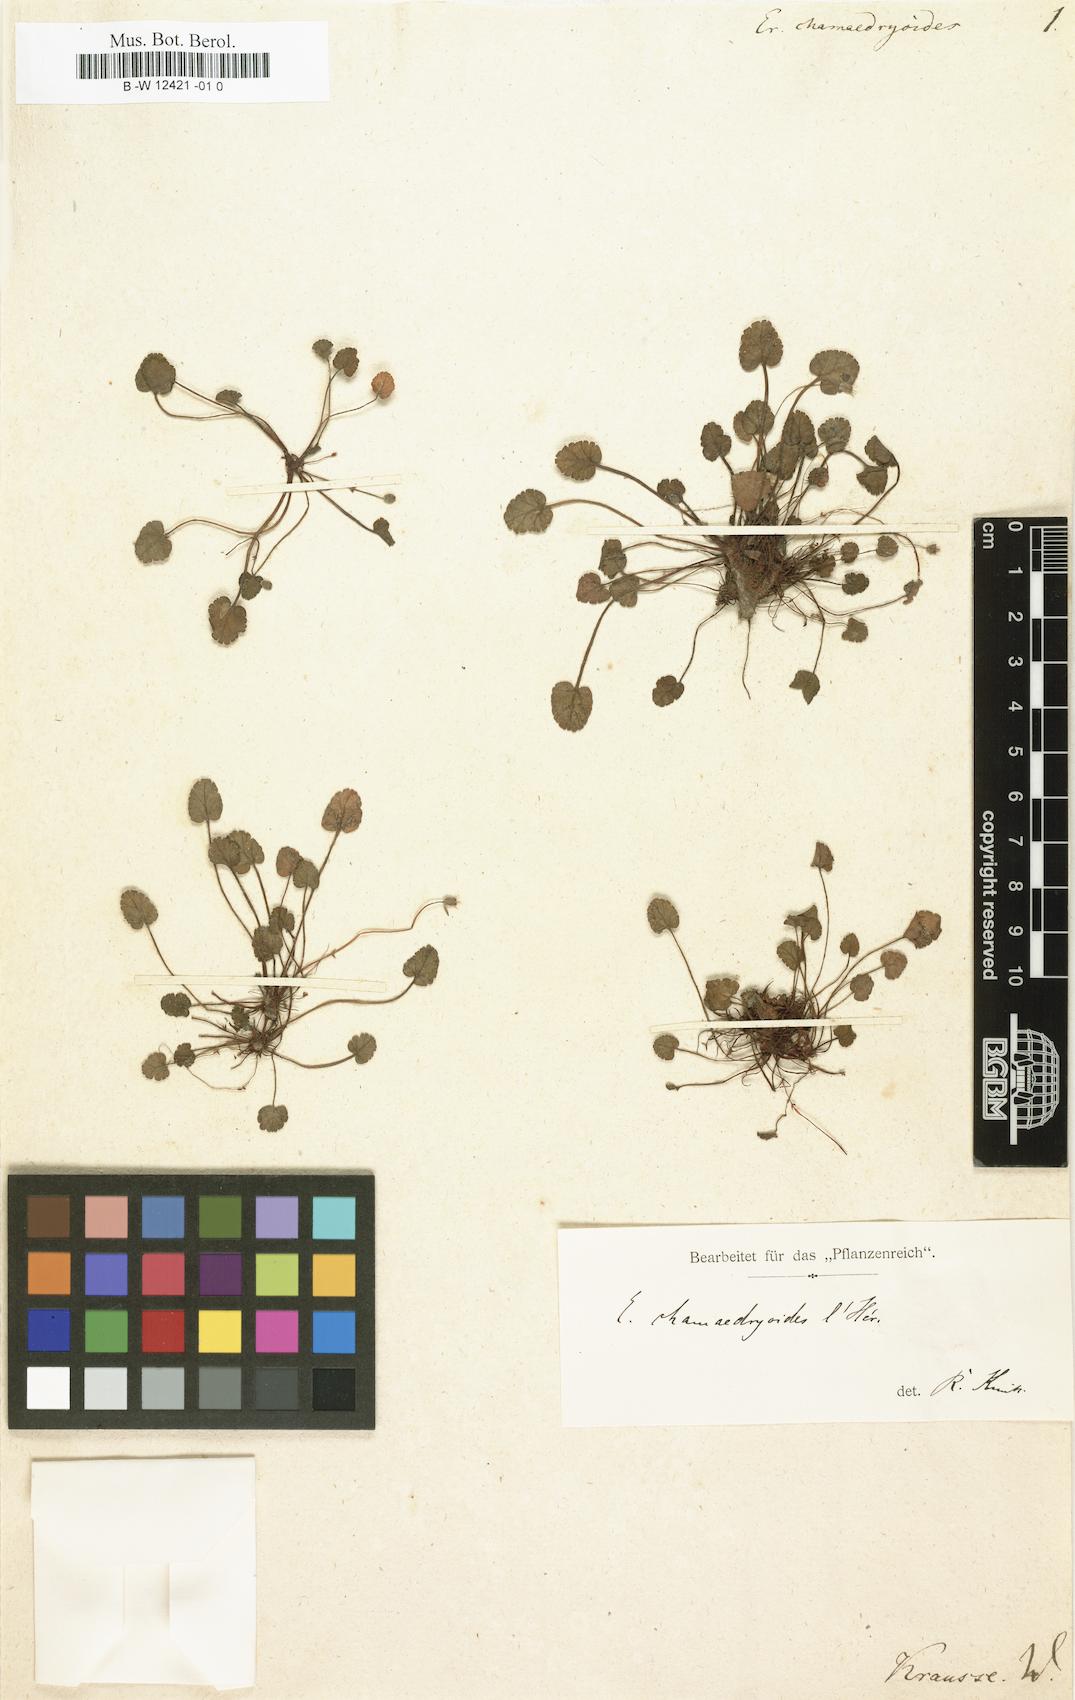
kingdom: Plantae
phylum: Tracheophyta
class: Magnoliopsida
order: Geraniales
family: Geraniaceae
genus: Erodium
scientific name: Erodium reichardii
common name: Alpine-geranium
